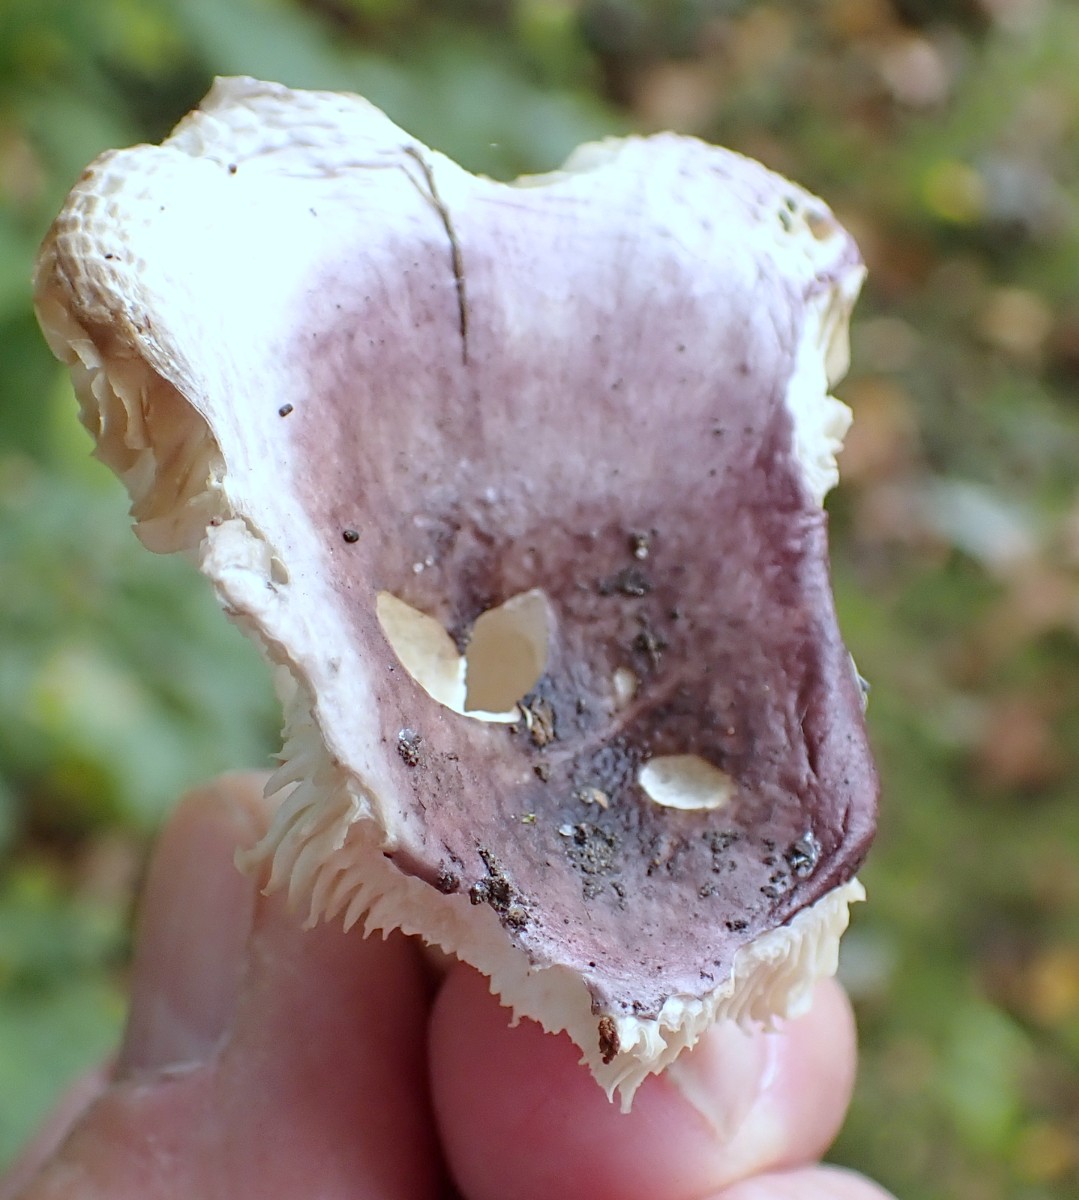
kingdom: Fungi
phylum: Basidiomycota
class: Agaricomycetes
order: Russulales
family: Russulaceae
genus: Russula
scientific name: Russula fragilis
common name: savbladet skørhat
